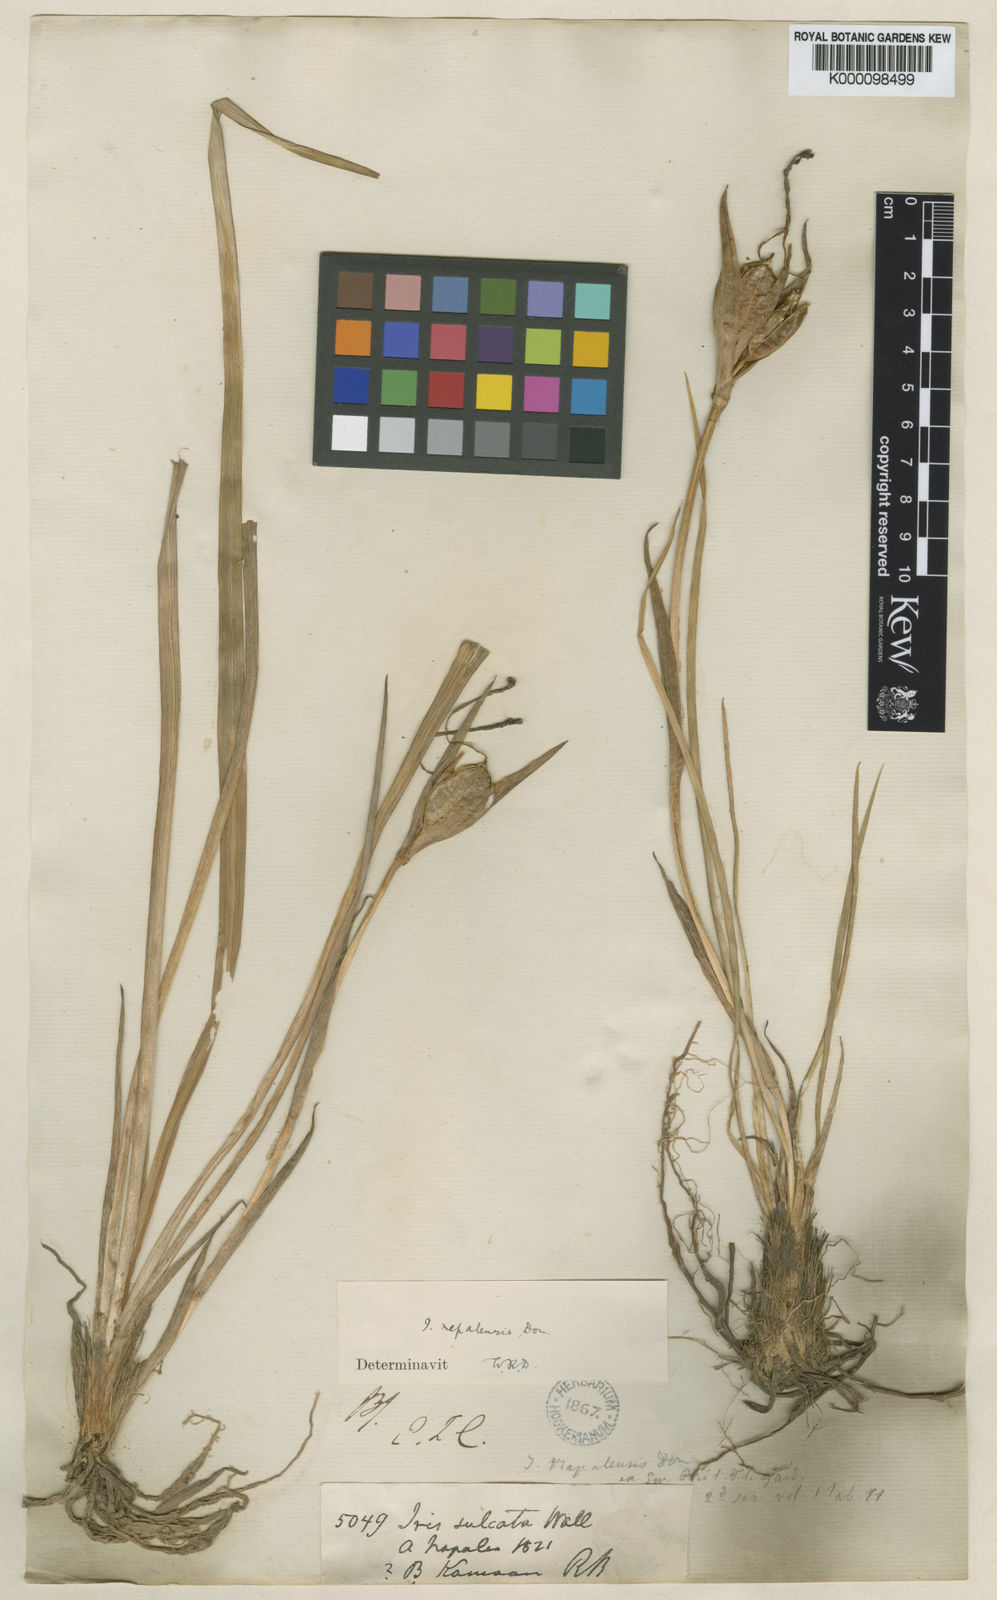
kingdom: Plantae
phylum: Tracheophyta
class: Liliopsida
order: Asparagales
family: Iridaceae
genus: Iris
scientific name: Iris decora
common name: Nepal iris
